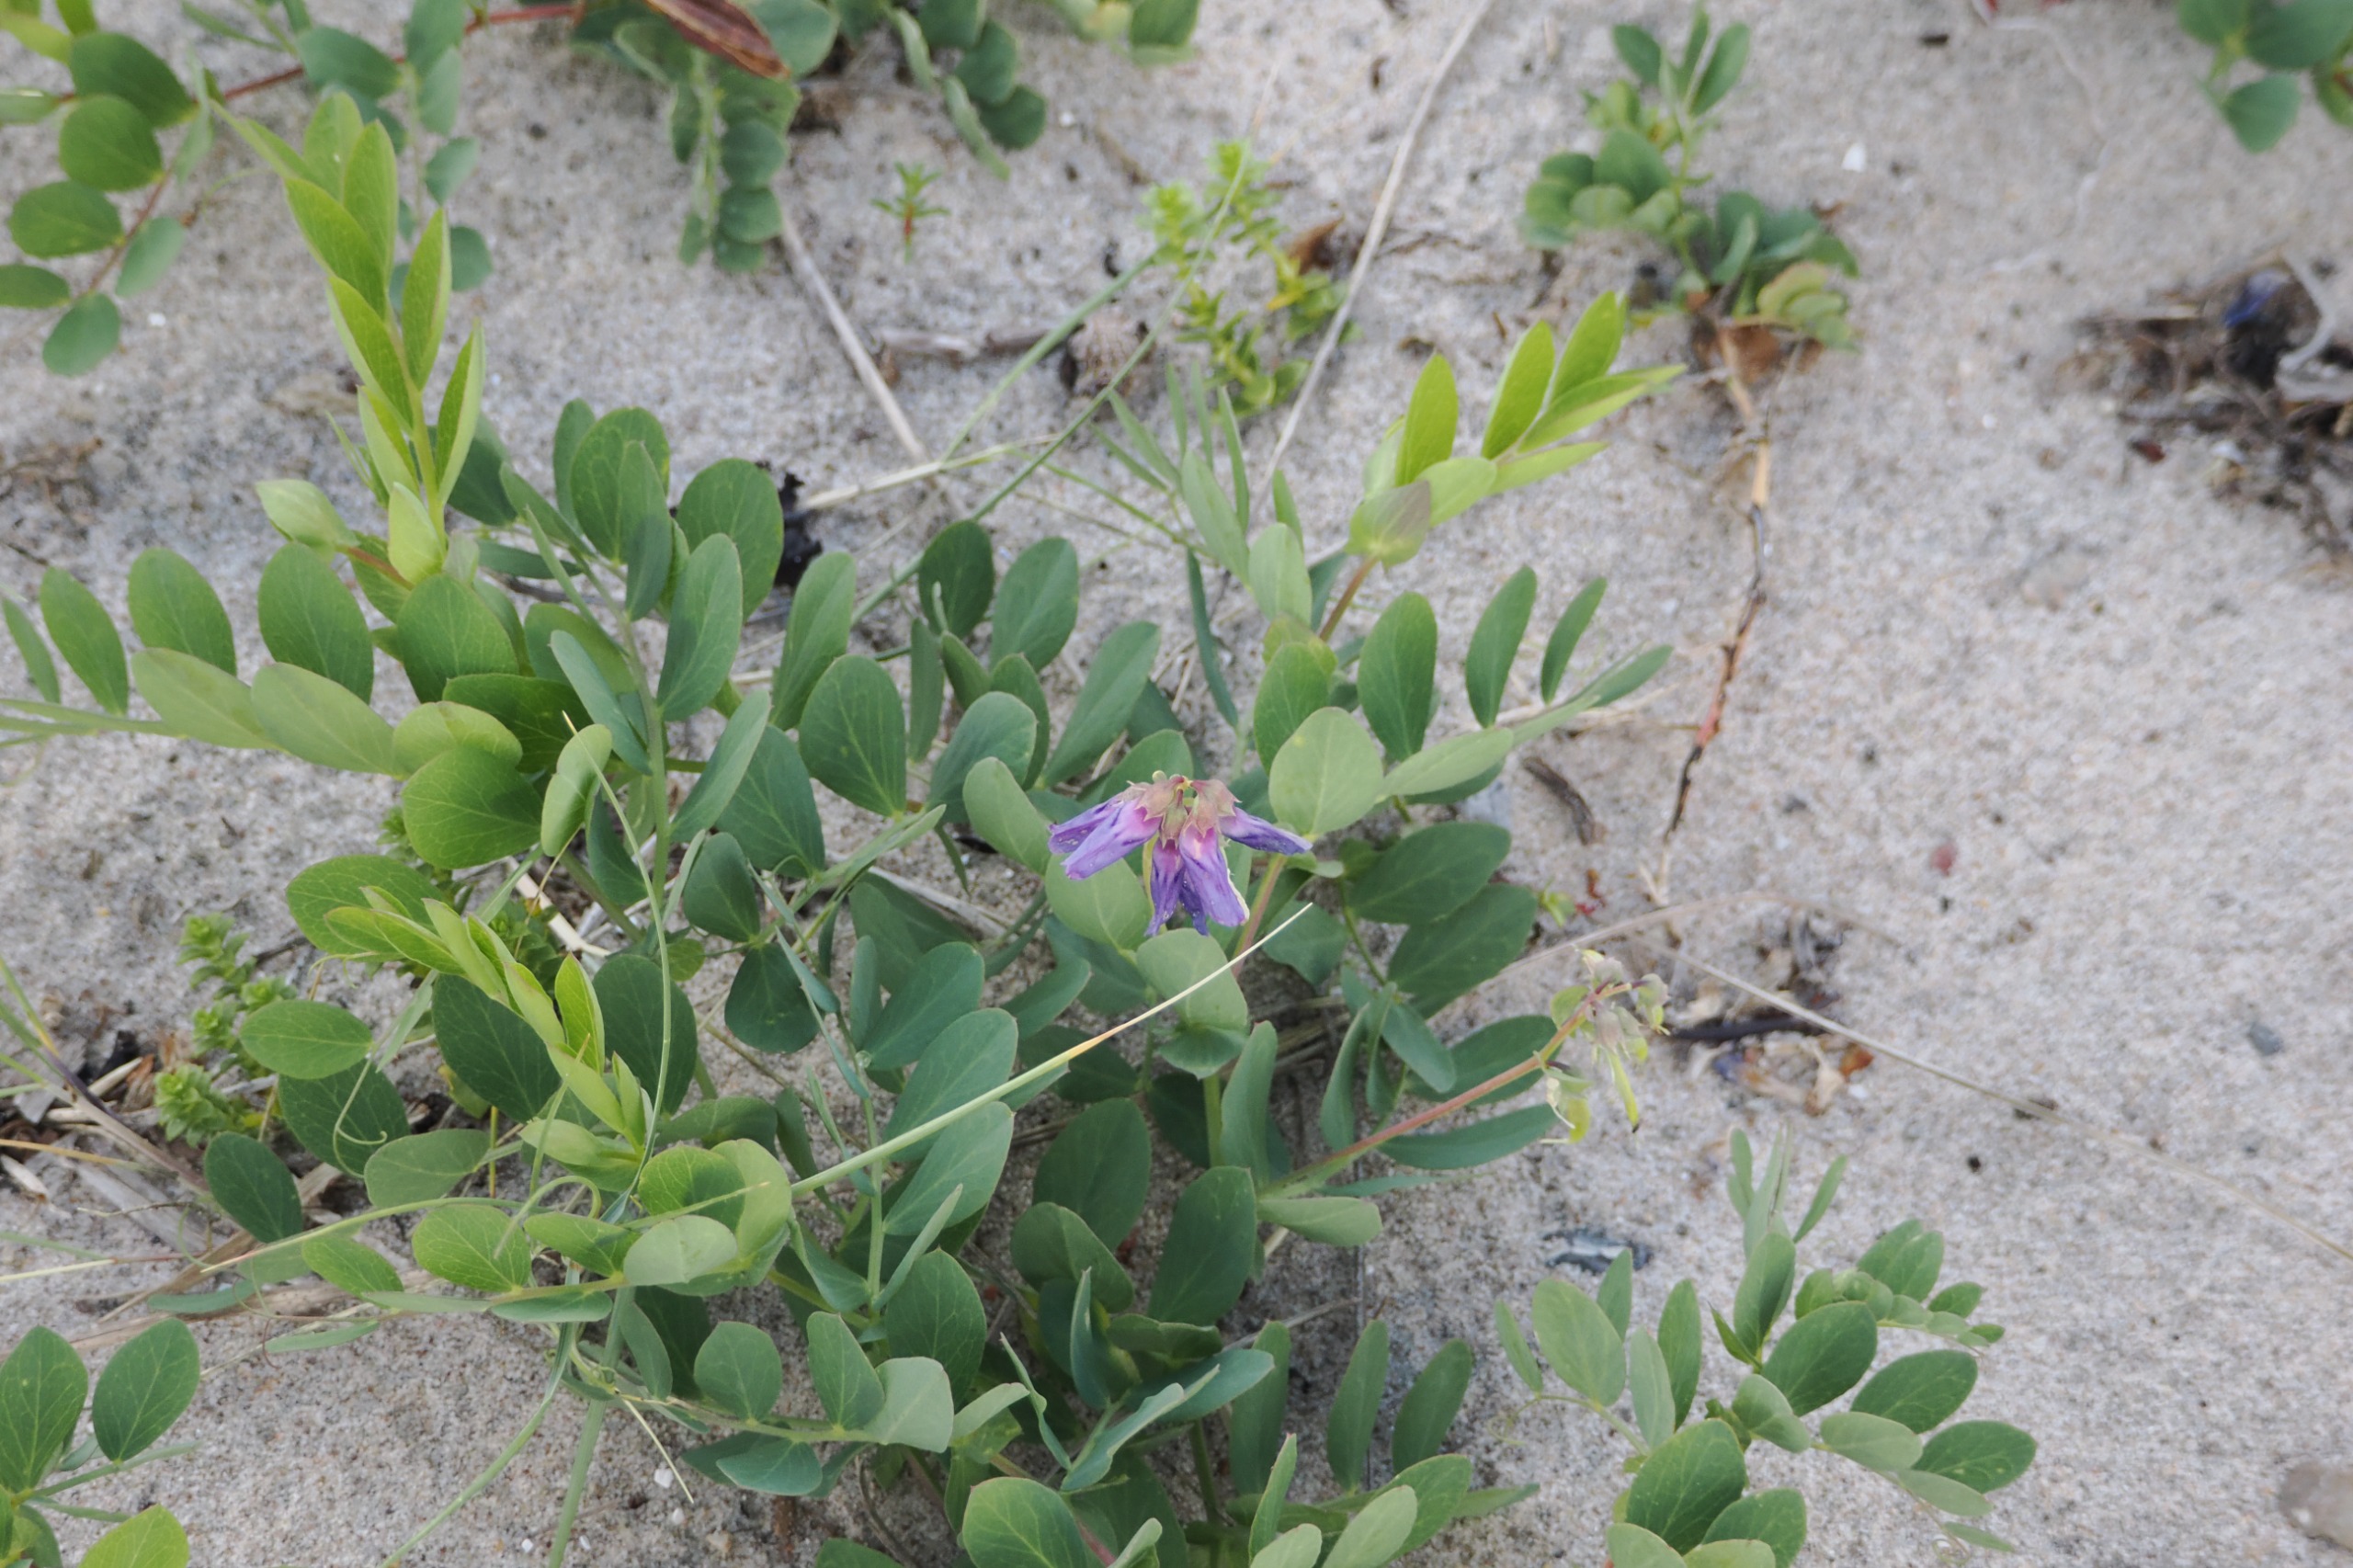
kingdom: Plantae
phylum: Tracheophyta
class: Magnoliopsida
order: Fabales
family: Fabaceae
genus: Lathyrus
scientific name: Lathyrus japonicus
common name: Strand-fladbælg
